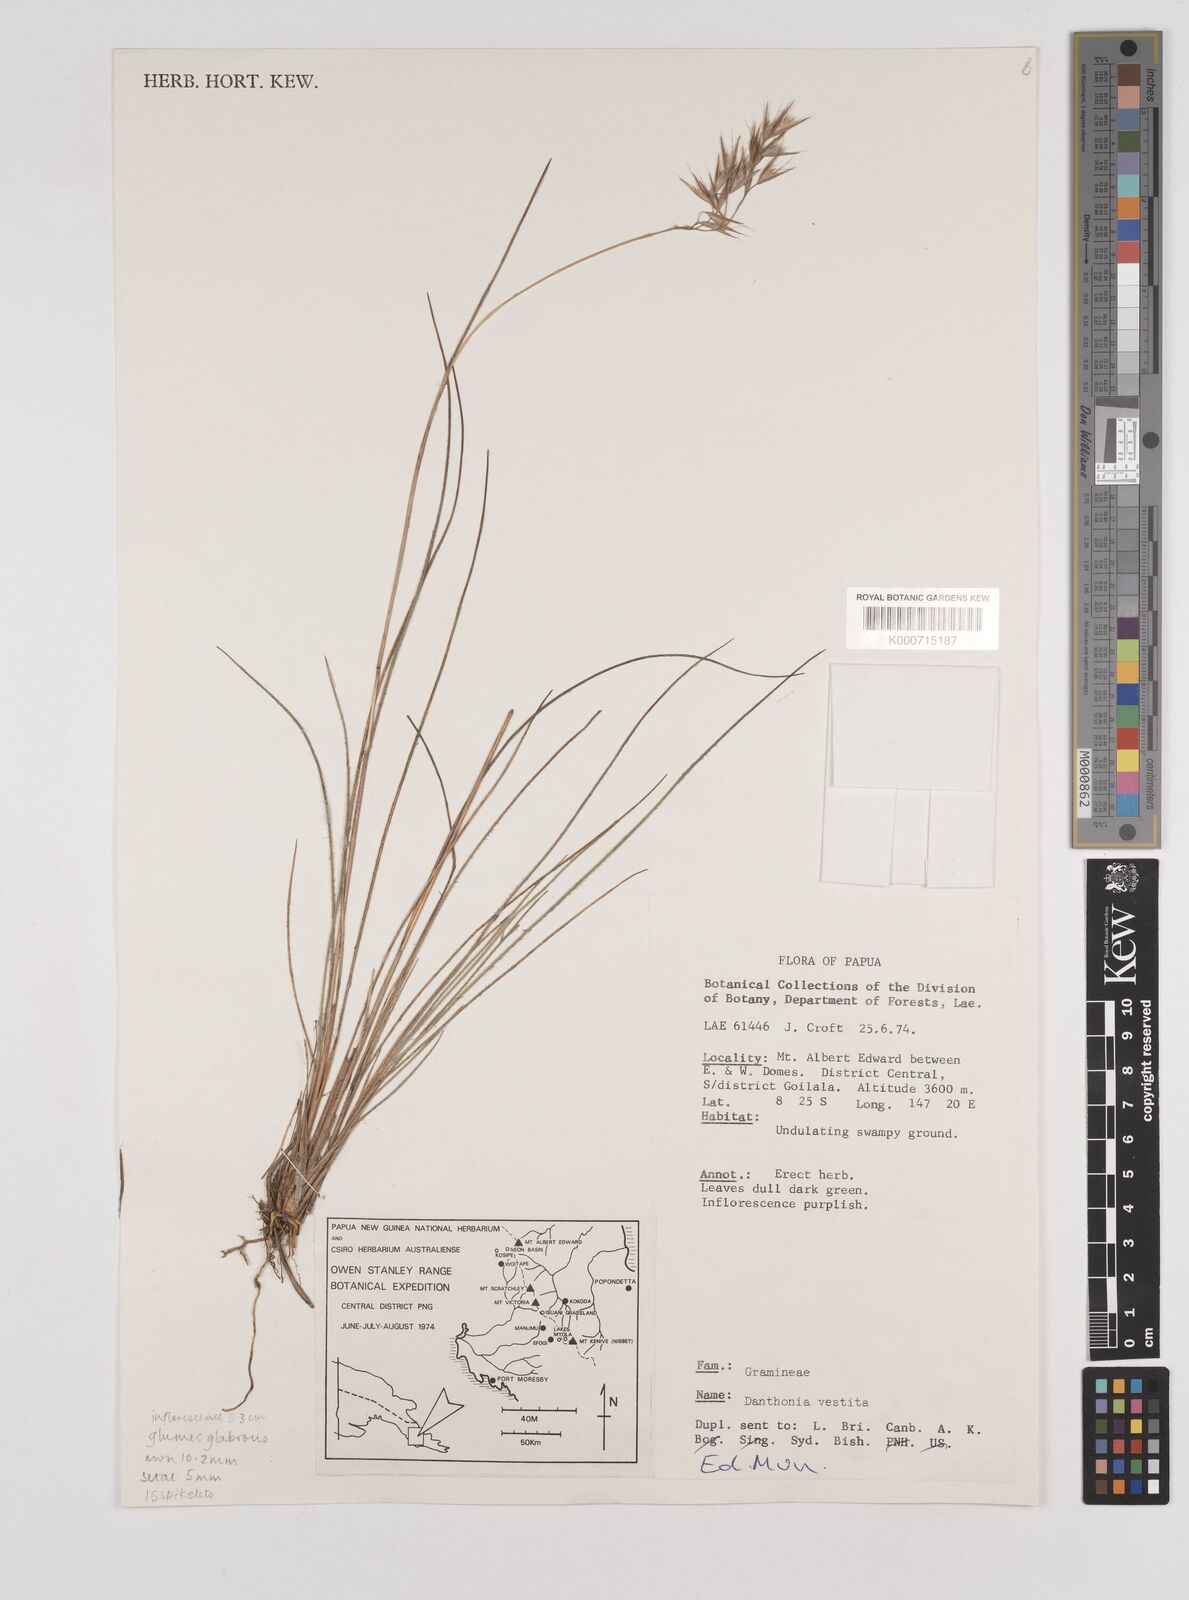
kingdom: Plantae
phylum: Tracheophyta
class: Liliopsida
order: Poales
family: Poaceae
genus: Rytidosperma
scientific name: Rytidosperma vestitum
